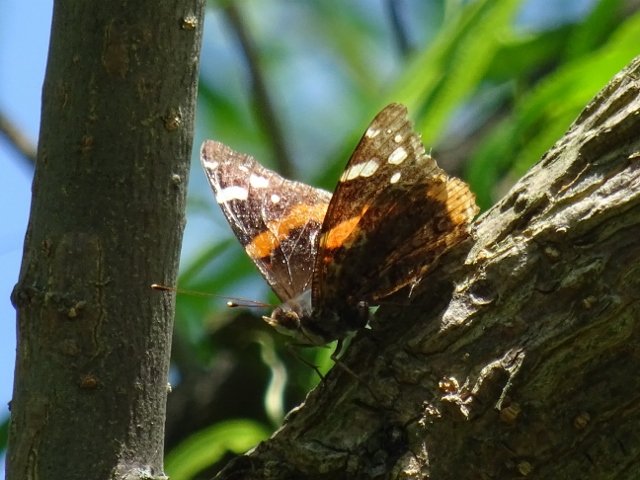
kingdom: Animalia
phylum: Arthropoda
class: Insecta
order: Lepidoptera
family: Nymphalidae
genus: Vanessa
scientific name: Vanessa atalanta
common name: Red Admiral
